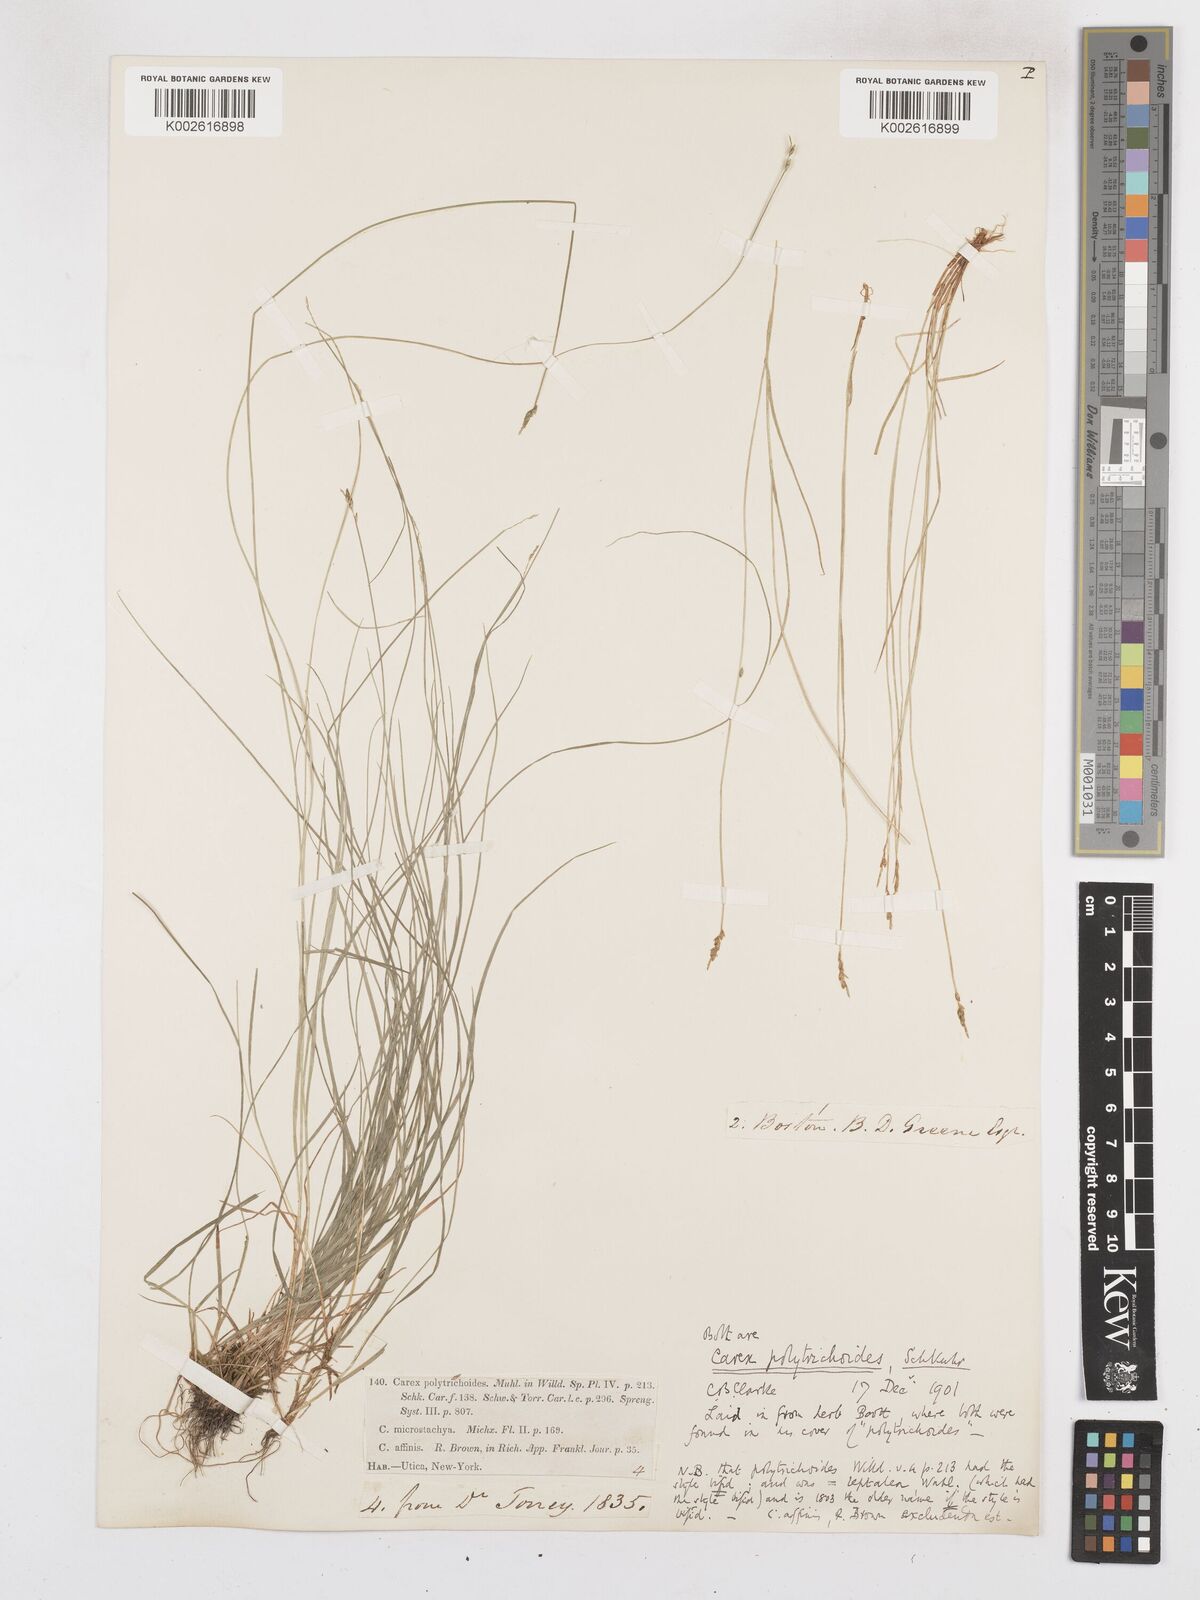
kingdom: Plantae
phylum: Tracheophyta
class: Liliopsida
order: Poales
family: Cyperaceae
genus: Carex
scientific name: Carex leptalea
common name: Bristly-stalked sedge
